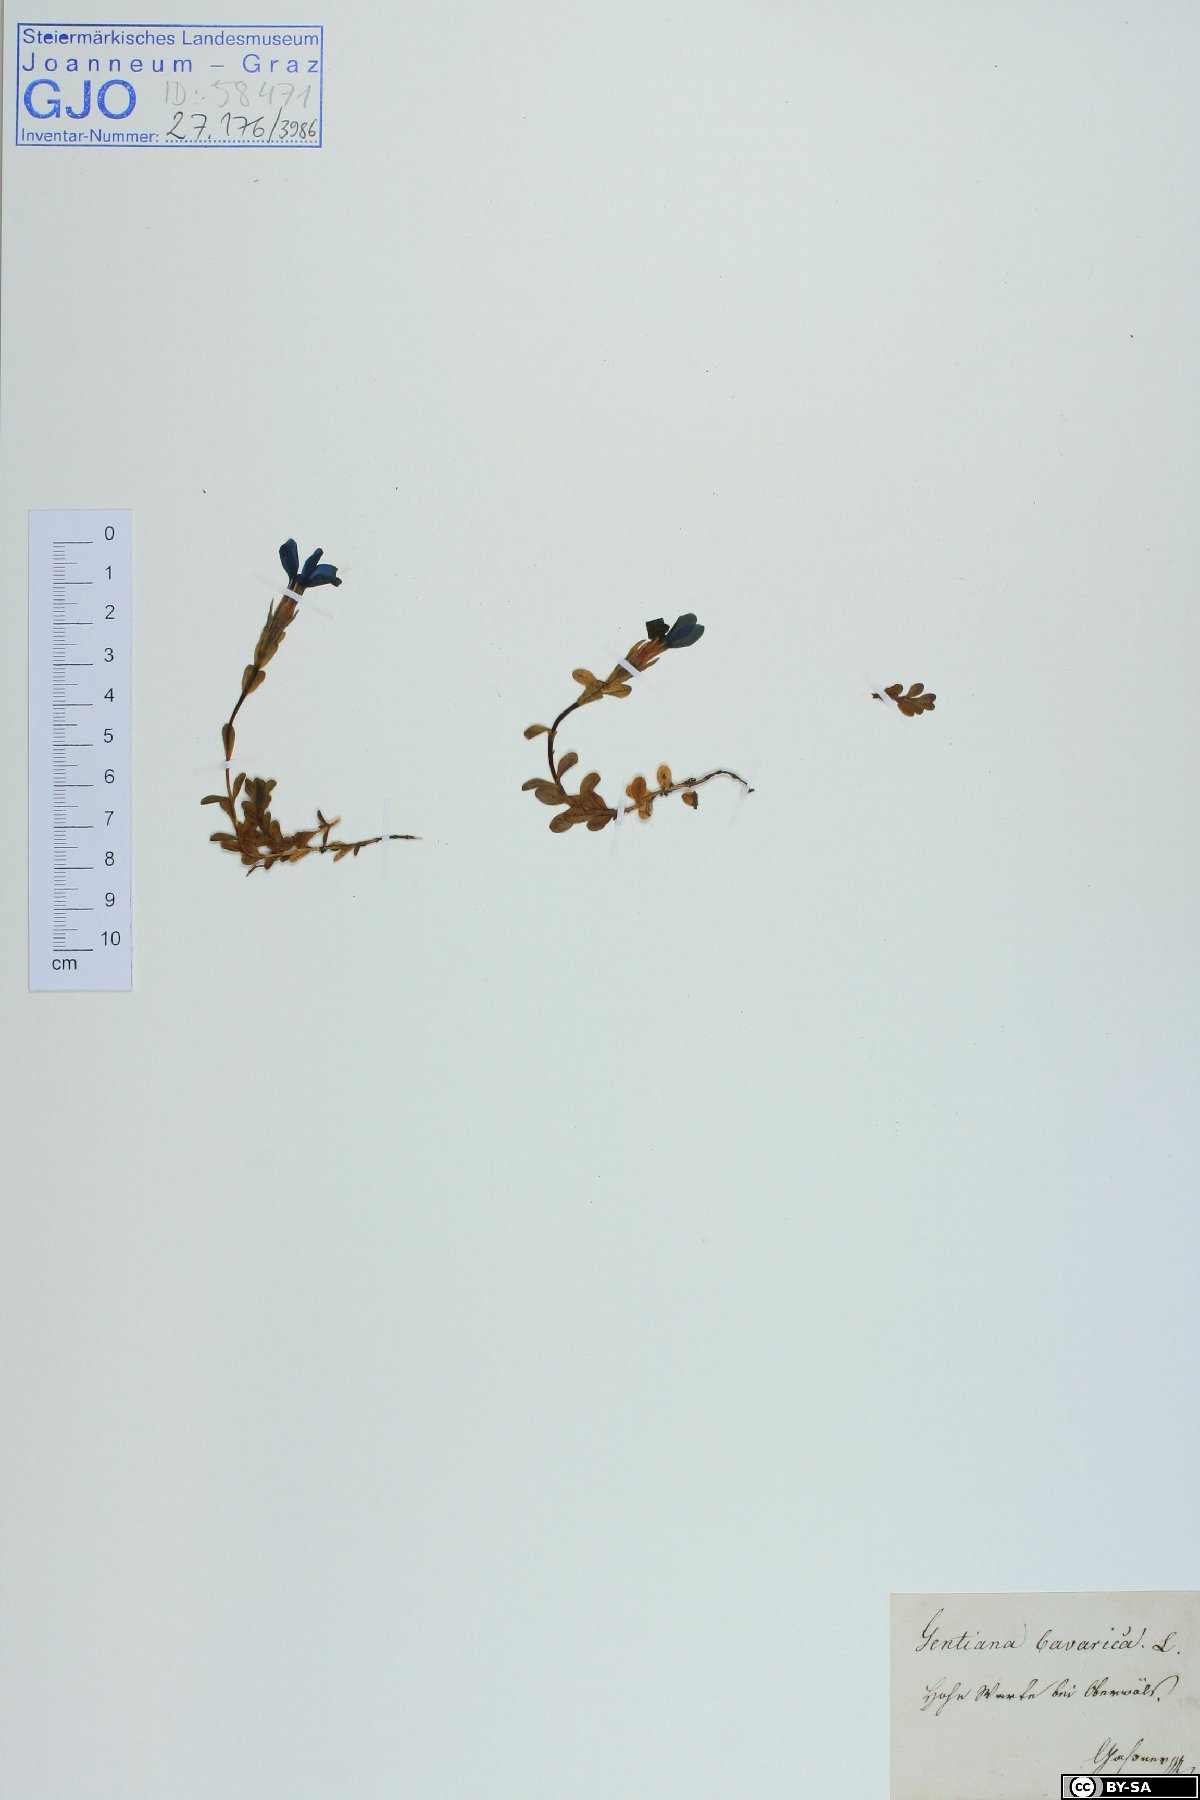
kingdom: Plantae
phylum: Tracheophyta
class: Magnoliopsida
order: Gentianales
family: Gentianaceae
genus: Gentiana
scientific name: Gentiana bavarica
